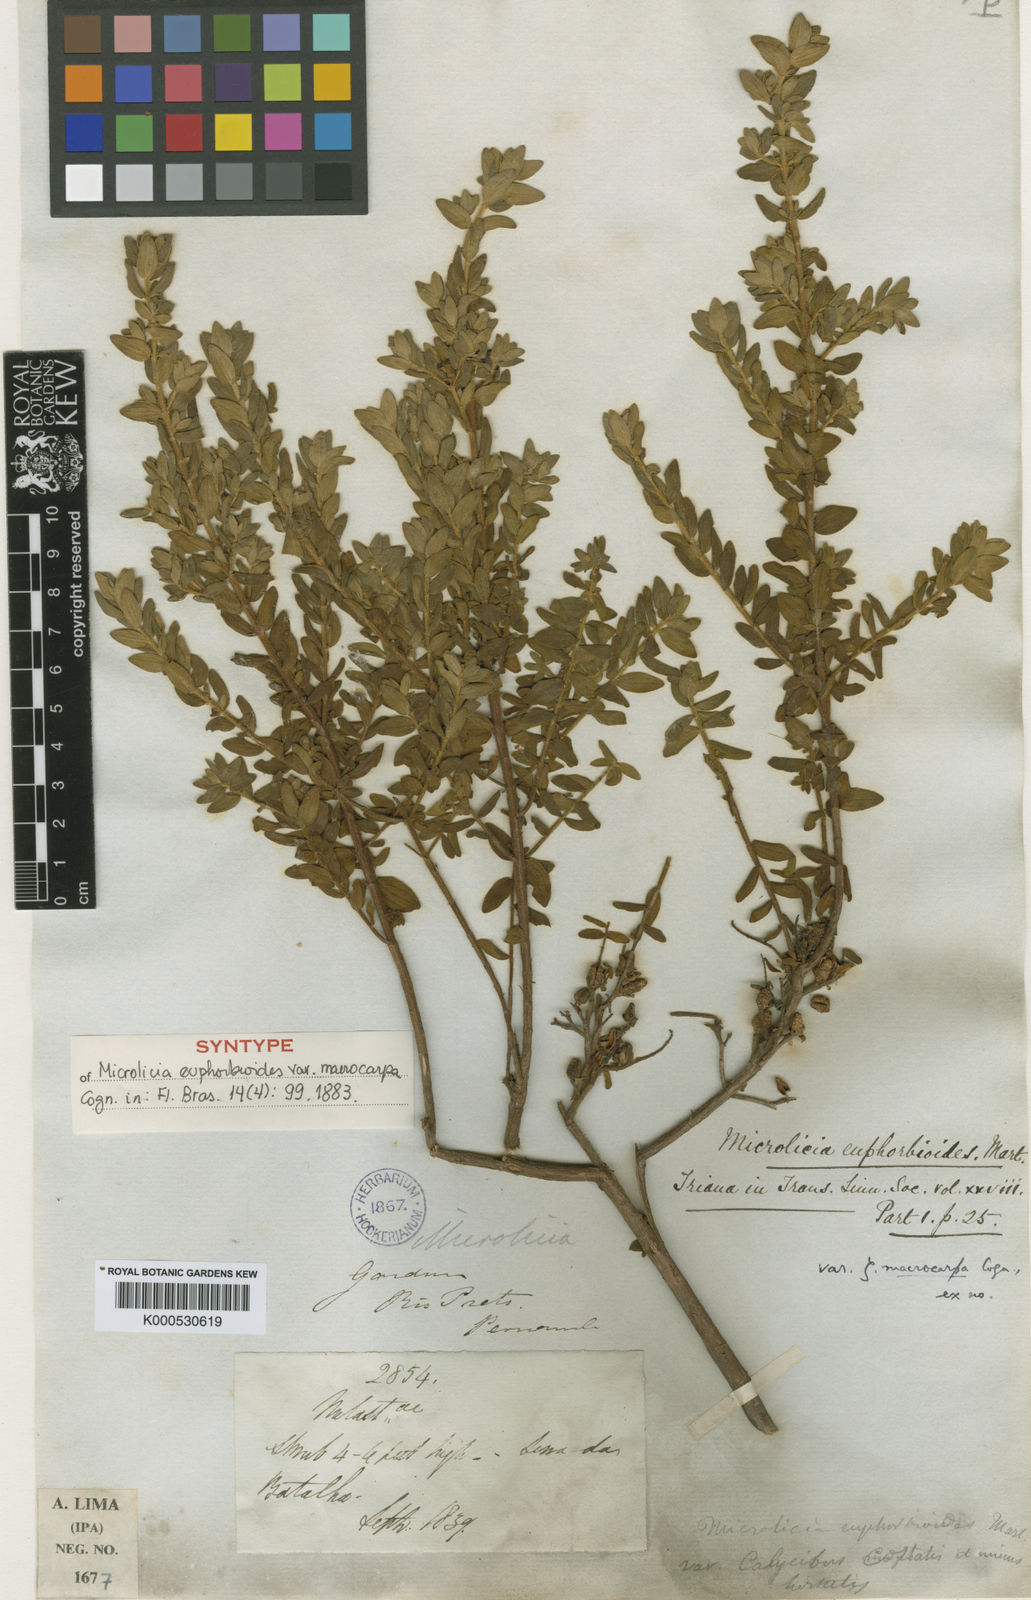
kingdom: Plantae
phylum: Tracheophyta
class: Magnoliopsida
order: Myrtales
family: Melastomataceae
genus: Microlicia
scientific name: Microlicia euphorbioides
